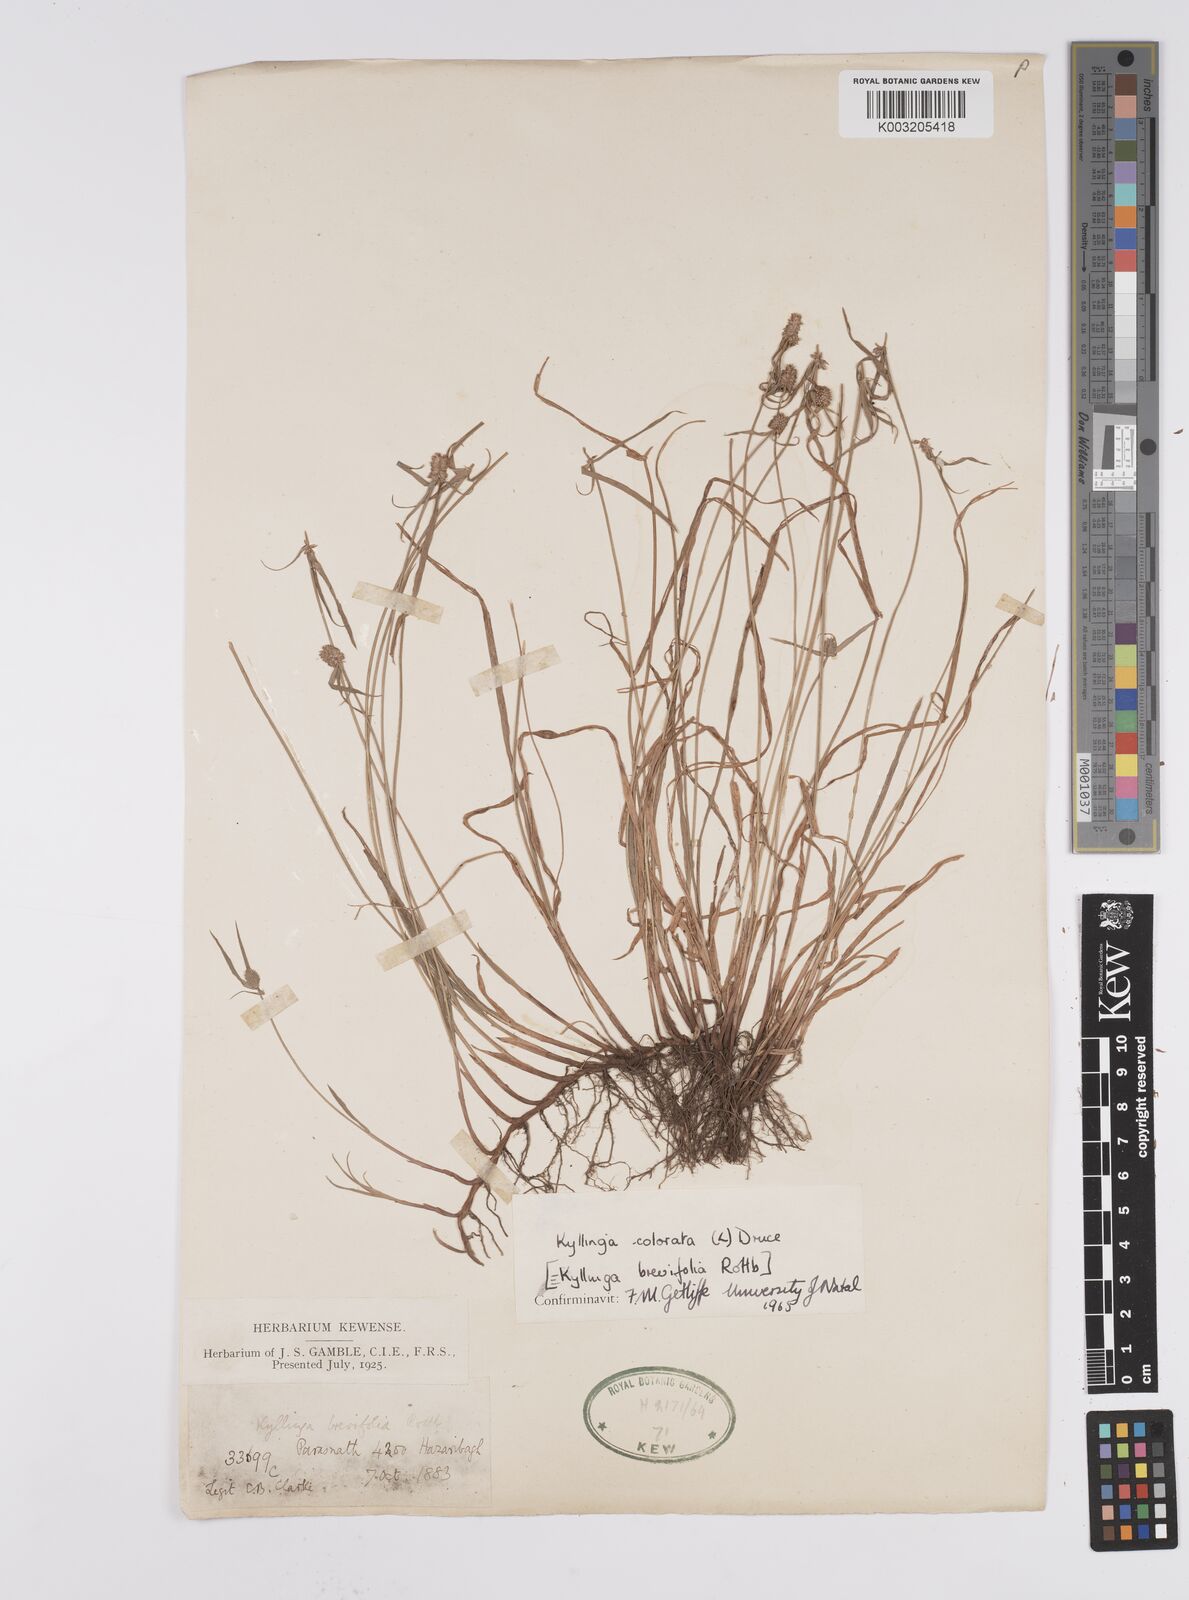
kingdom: Plantae
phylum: Tracheophyta
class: Liliopsida
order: Poales
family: Cyperaceae
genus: Cyperus
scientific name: Cyperus brevifolius
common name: Globe kyllinga
